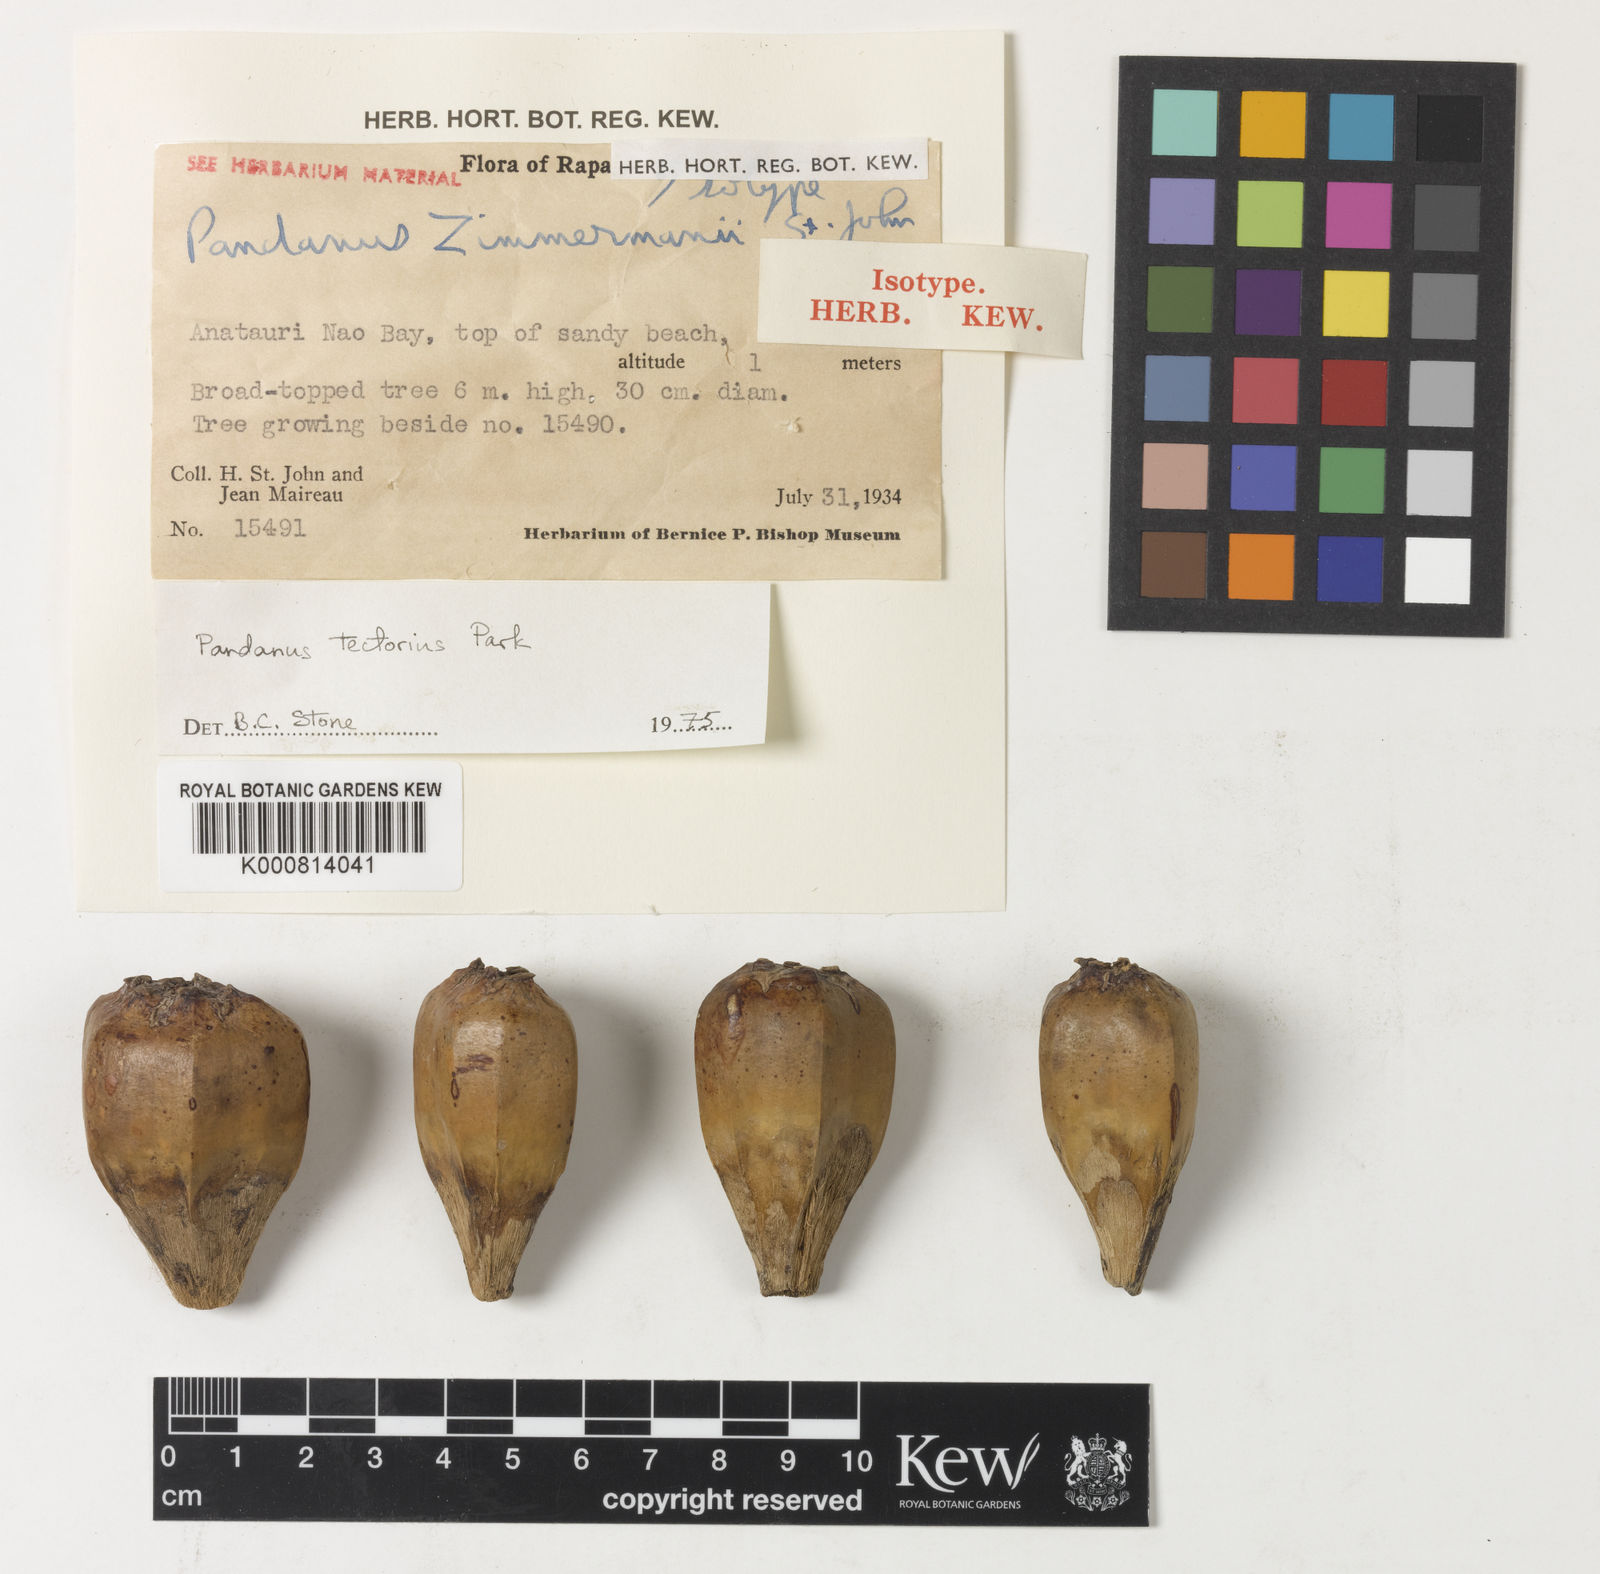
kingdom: Plantae
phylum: Tracheophyta
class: Liliopsida
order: Pandanales
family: Pandanaceae
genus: Pandanus
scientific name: Pandanus
